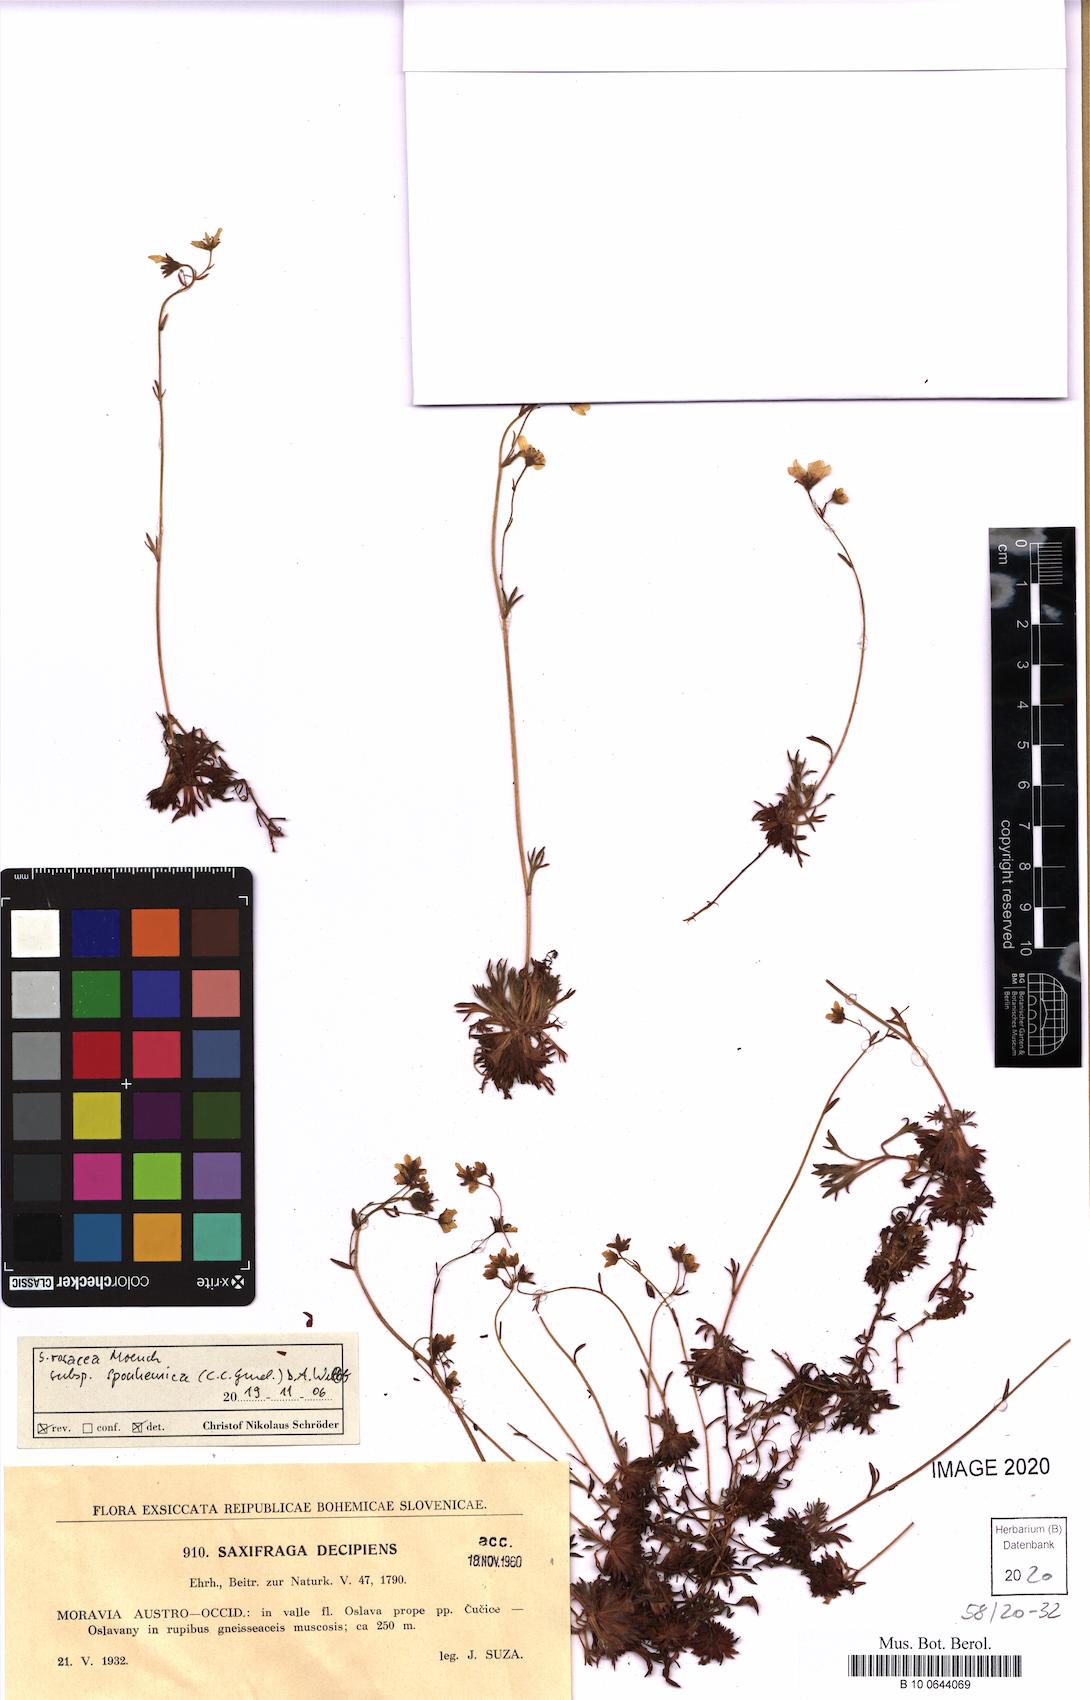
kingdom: Plantae
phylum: Tracheophyta
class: Magnoliopsida
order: Saxifragales
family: Saxifragaceae
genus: Saxifraga
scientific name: Saxifraga rosacea
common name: Irish saxifrage
